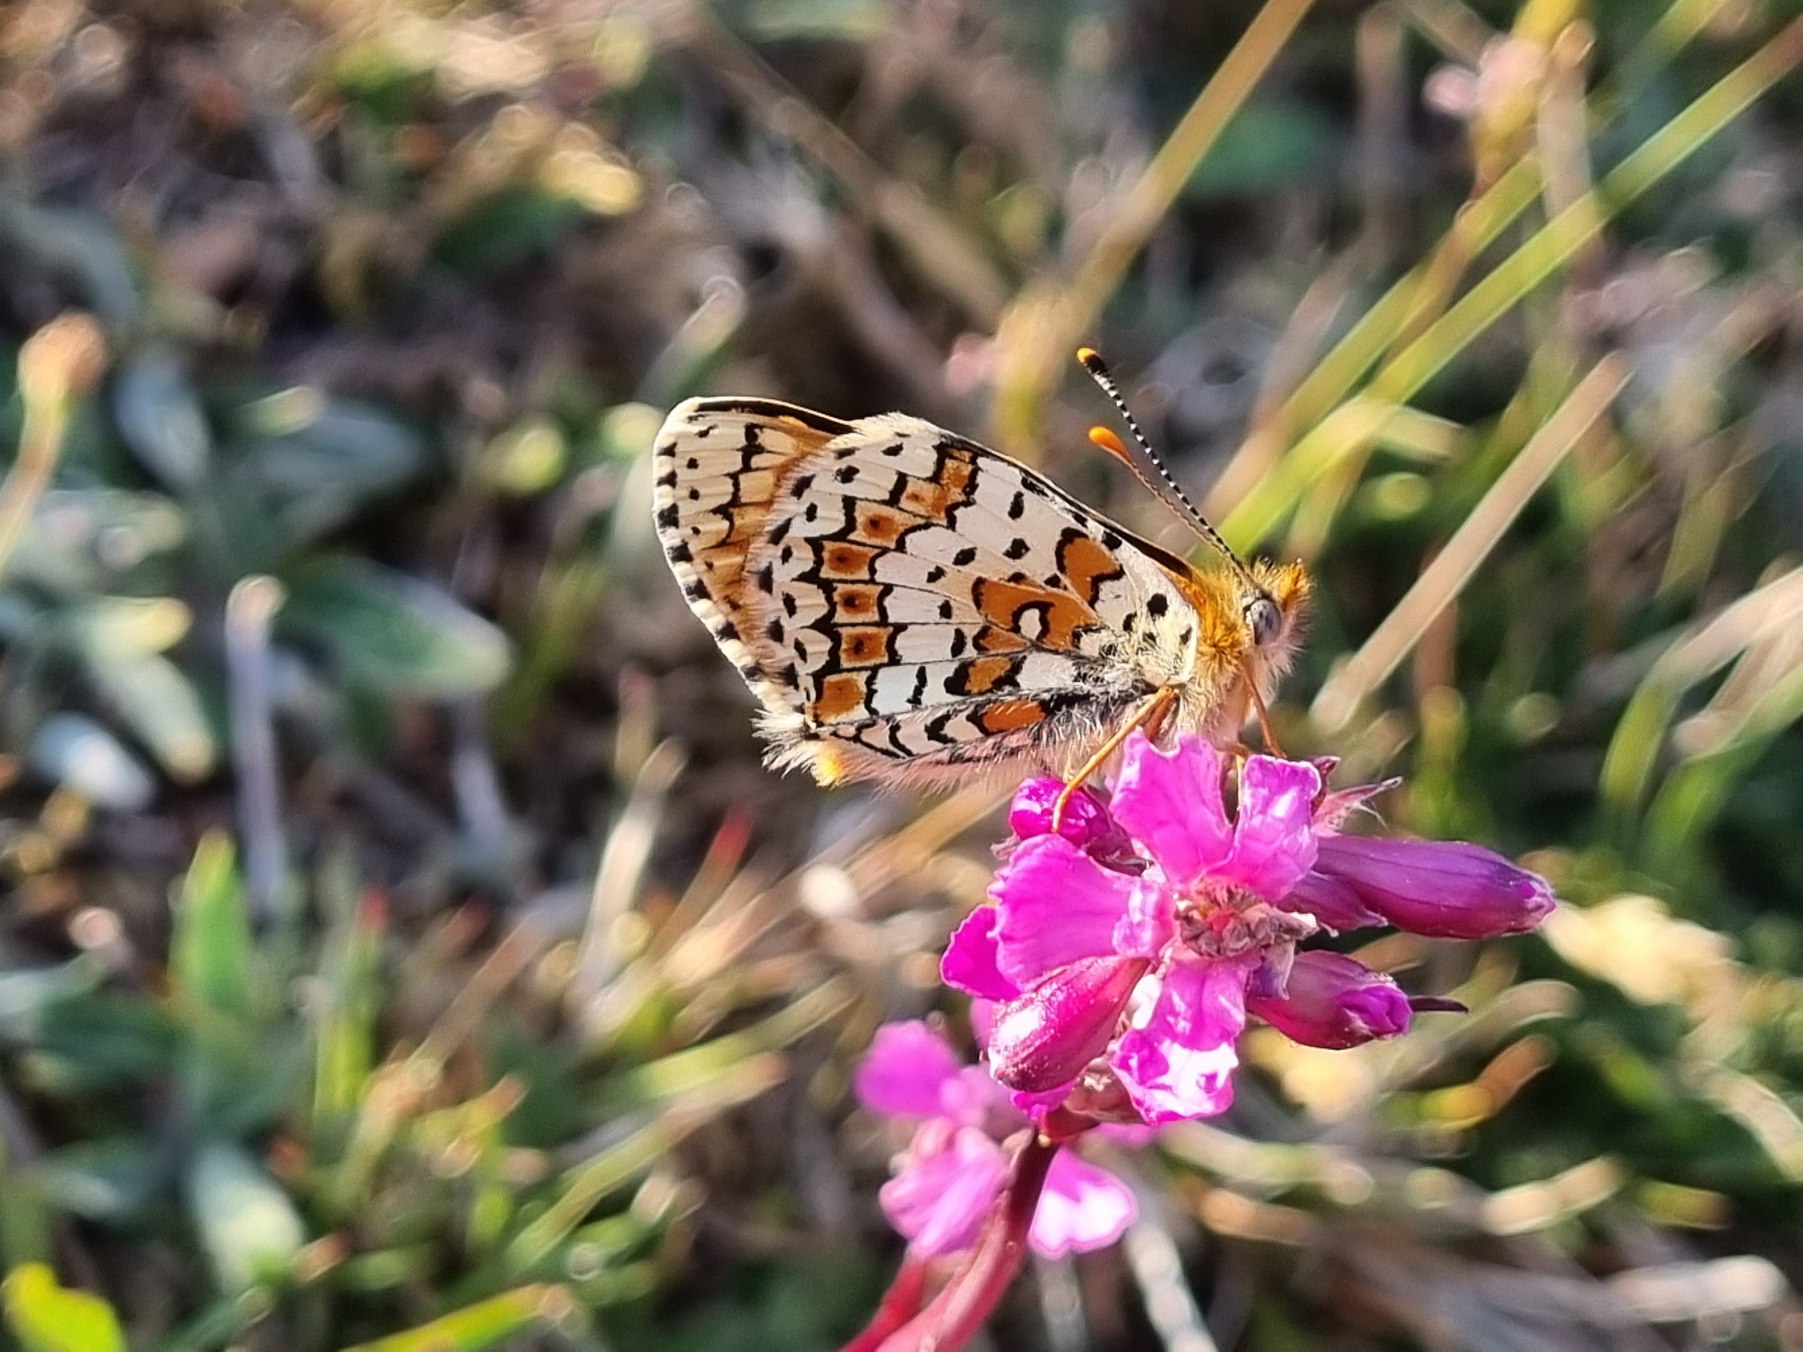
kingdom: Animalia
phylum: Arthropoda
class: Insecta
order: Lepidoptera
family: Nymphalidae
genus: Melitaea
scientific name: Melitaea cinxia
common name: Okkergul pletvinge
